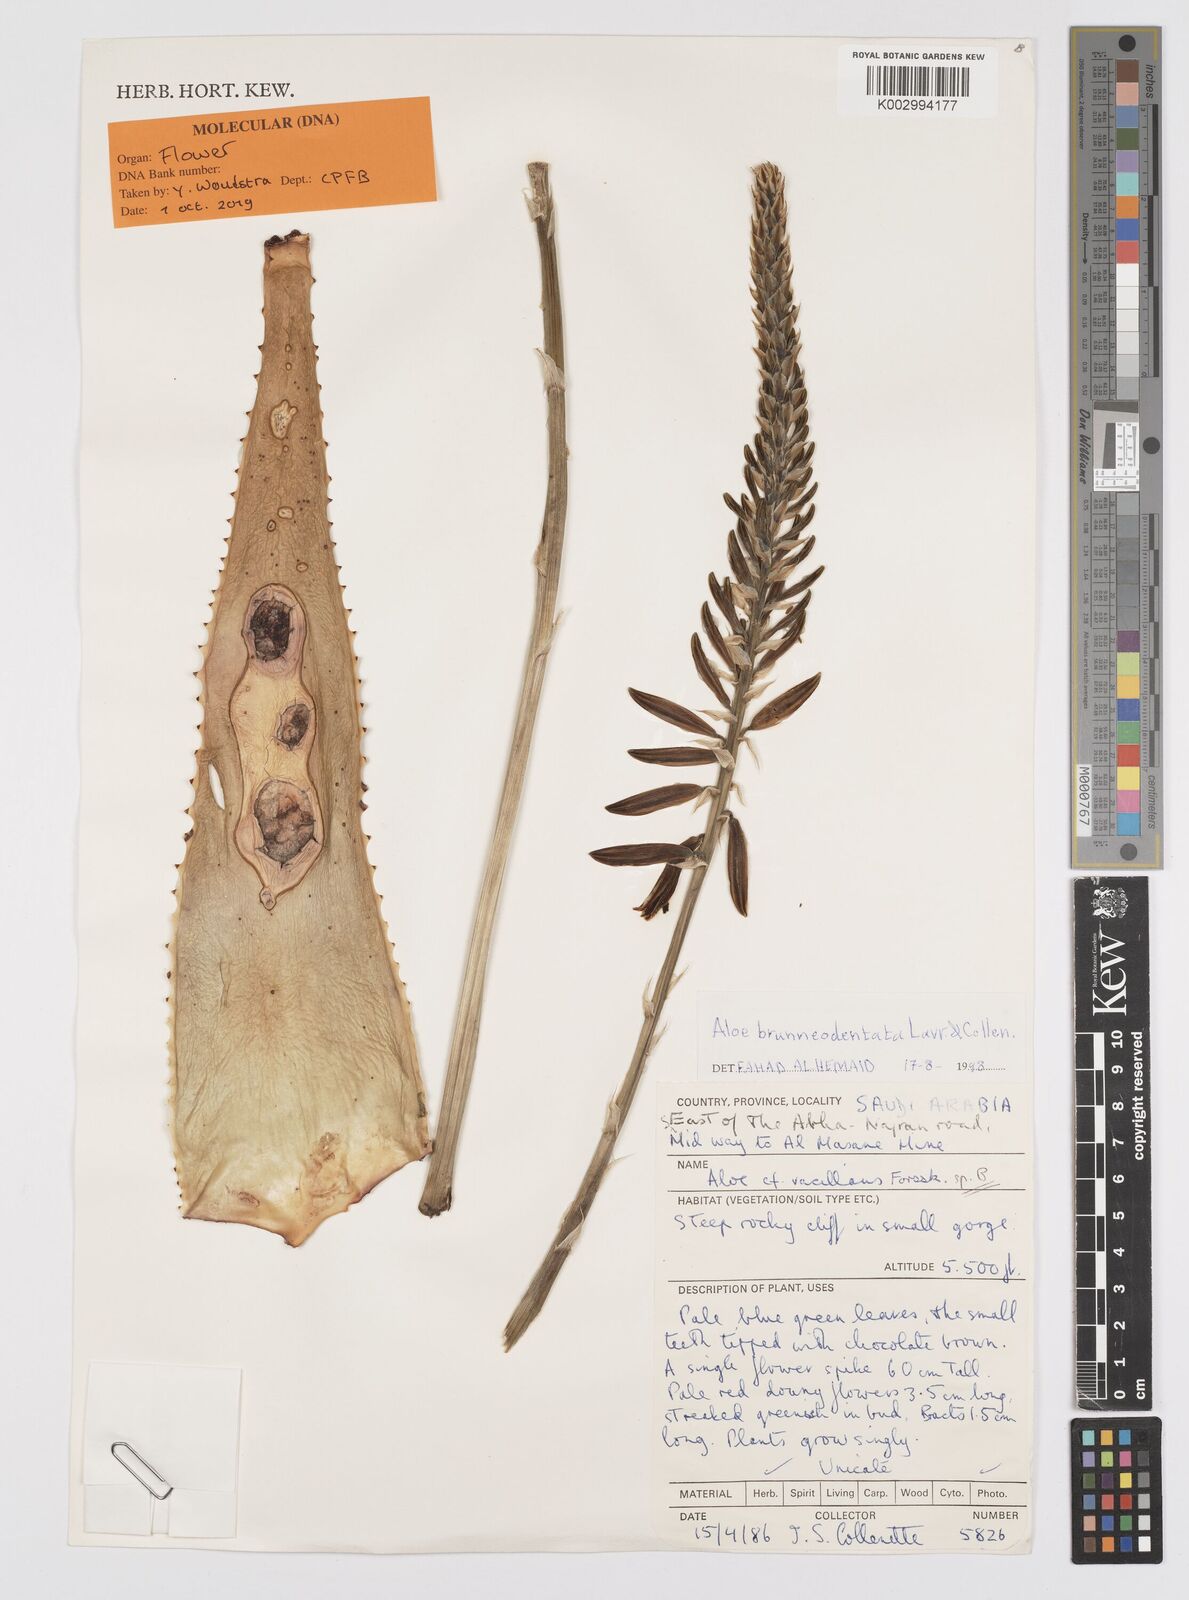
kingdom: Plantae
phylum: Tracheophyta
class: Liliopsida
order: Asparagales
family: Asphodelaceae
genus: Aloe
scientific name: Aloe brunneodentata
